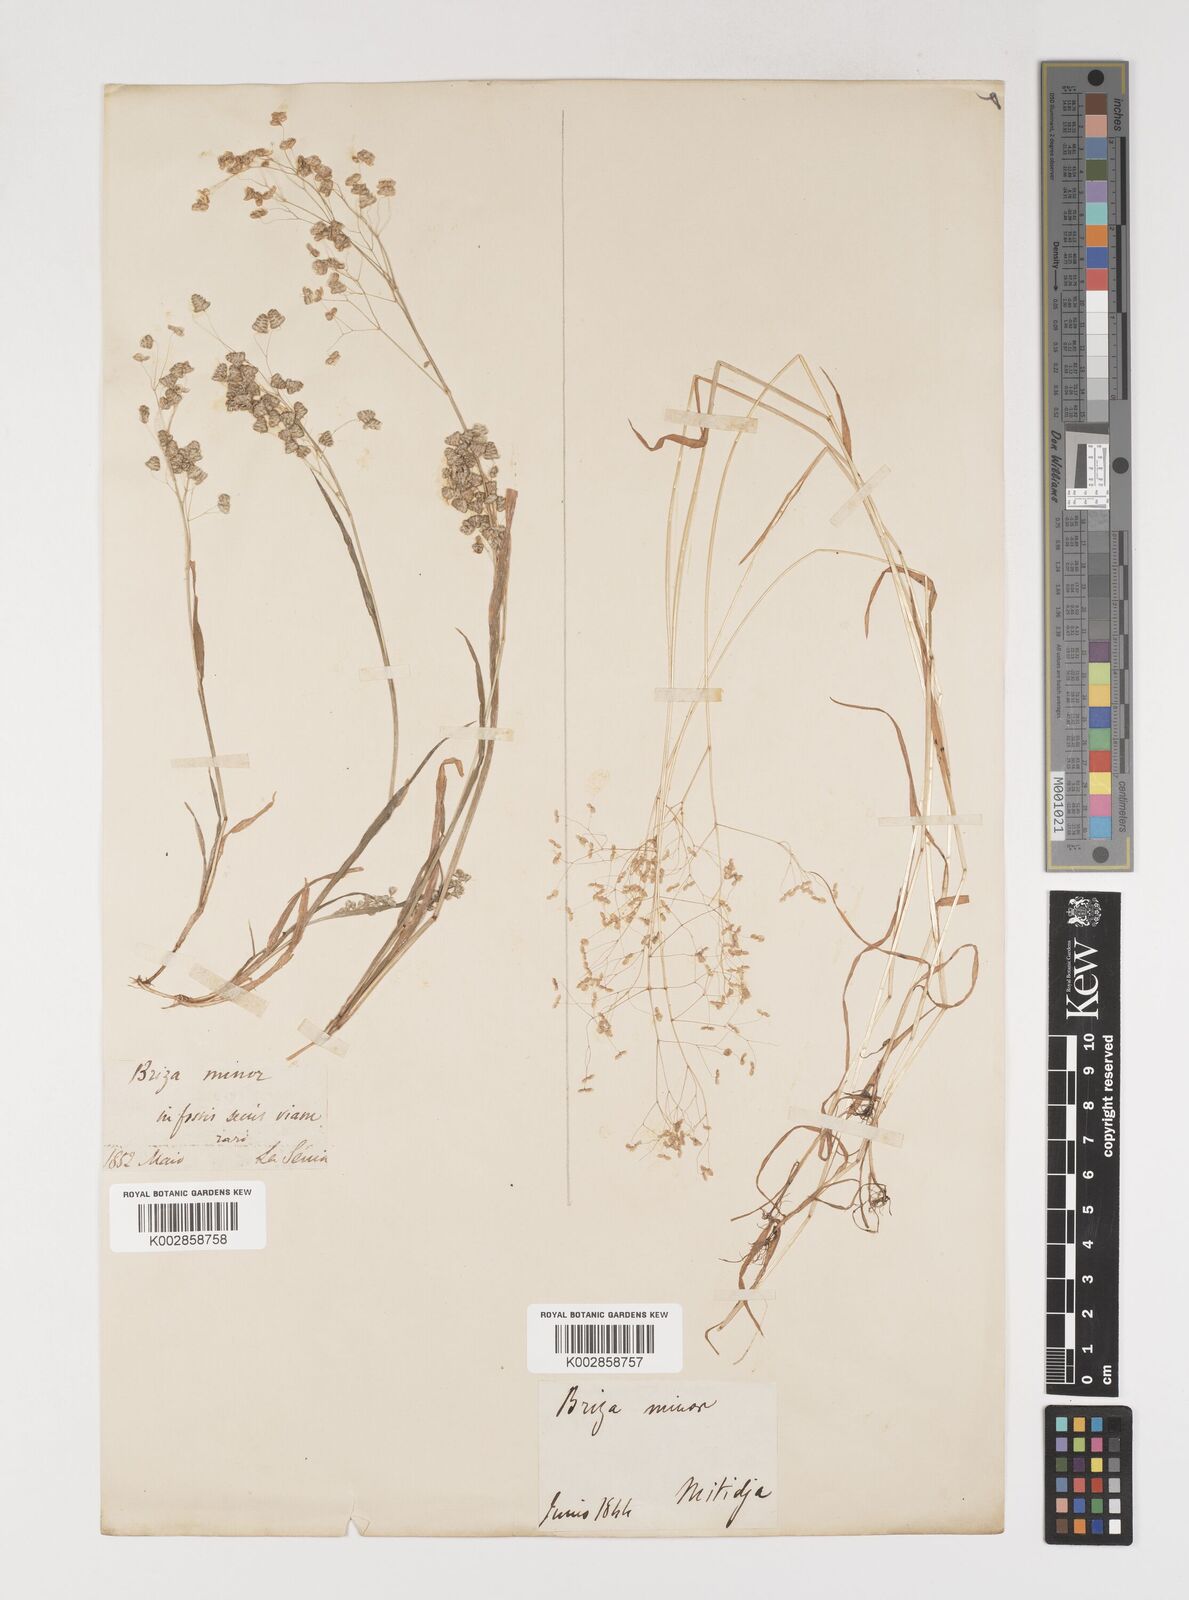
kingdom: Plantae
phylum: Tracheophyta
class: Liliopsida
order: Poales
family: Poaceae
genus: Briza
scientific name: Briza minor
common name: Lesser quaking-grass
